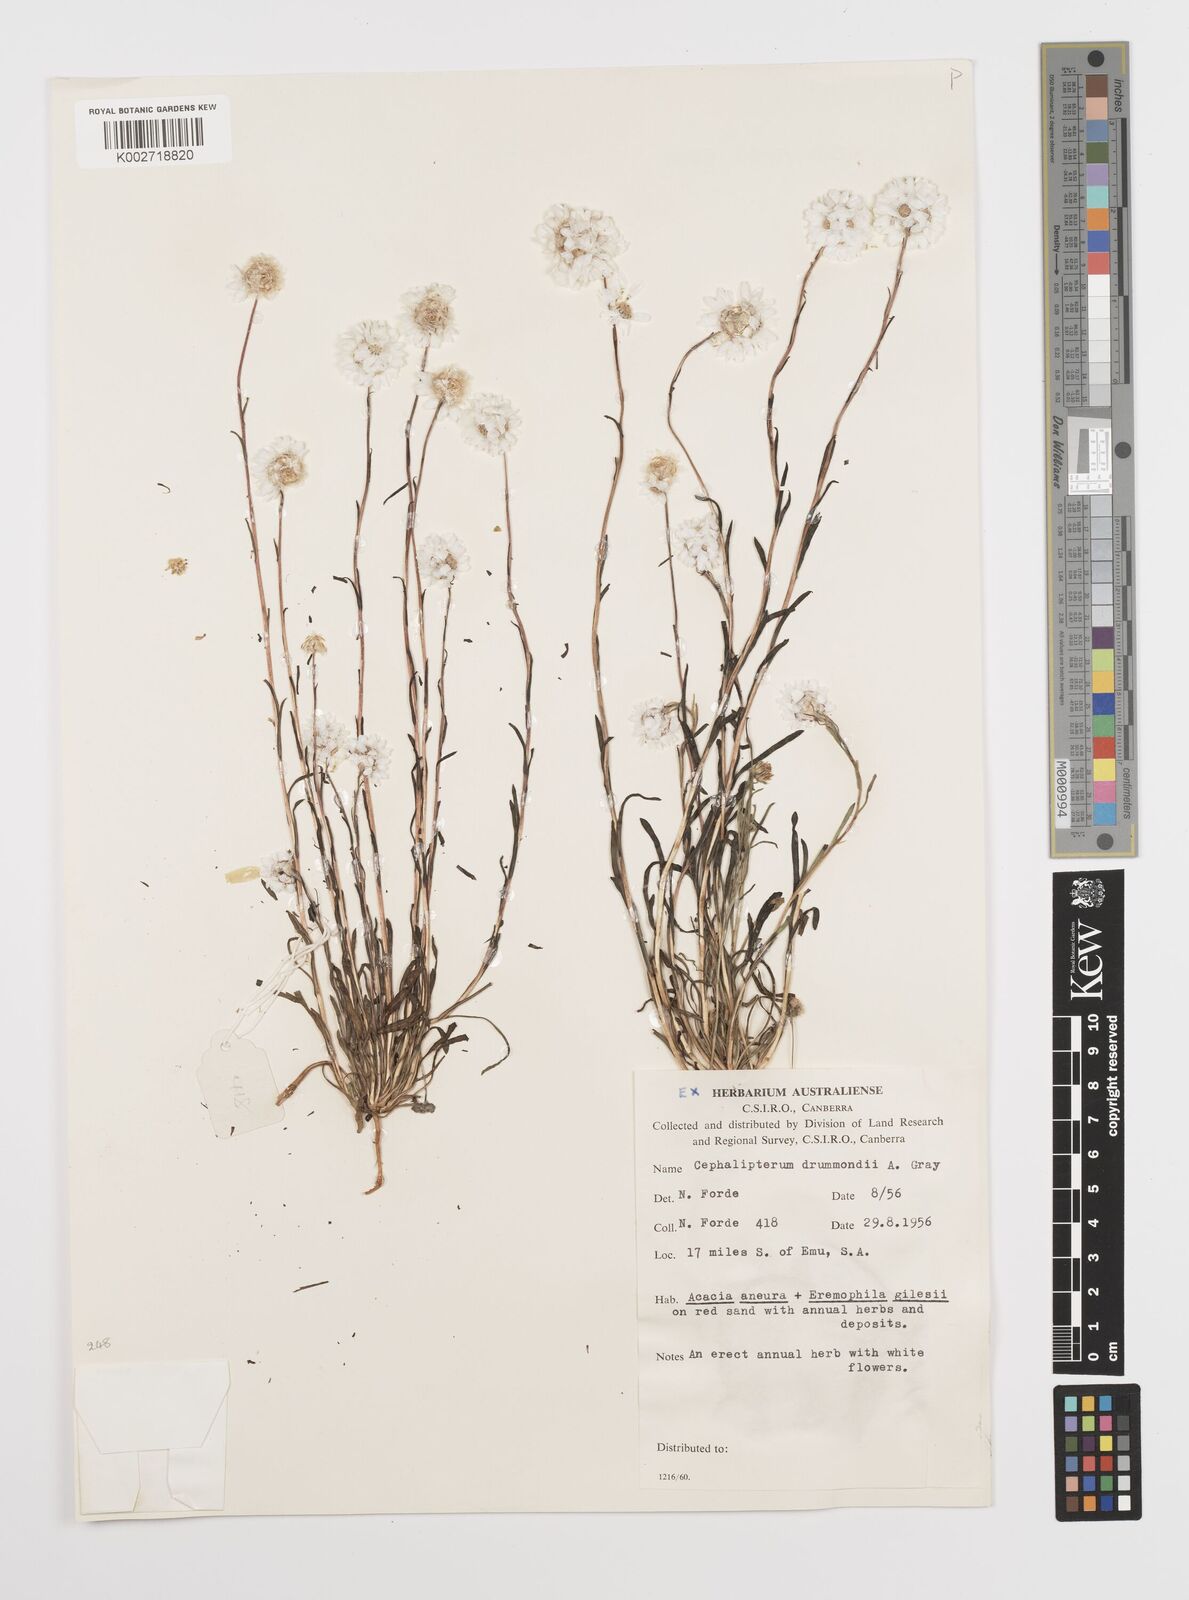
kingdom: Plantae
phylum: Tracheophyta
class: Magnoliopsida
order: Asterales
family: Asteraceae
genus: Cephalipterum
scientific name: Cephalipterum drummondii
